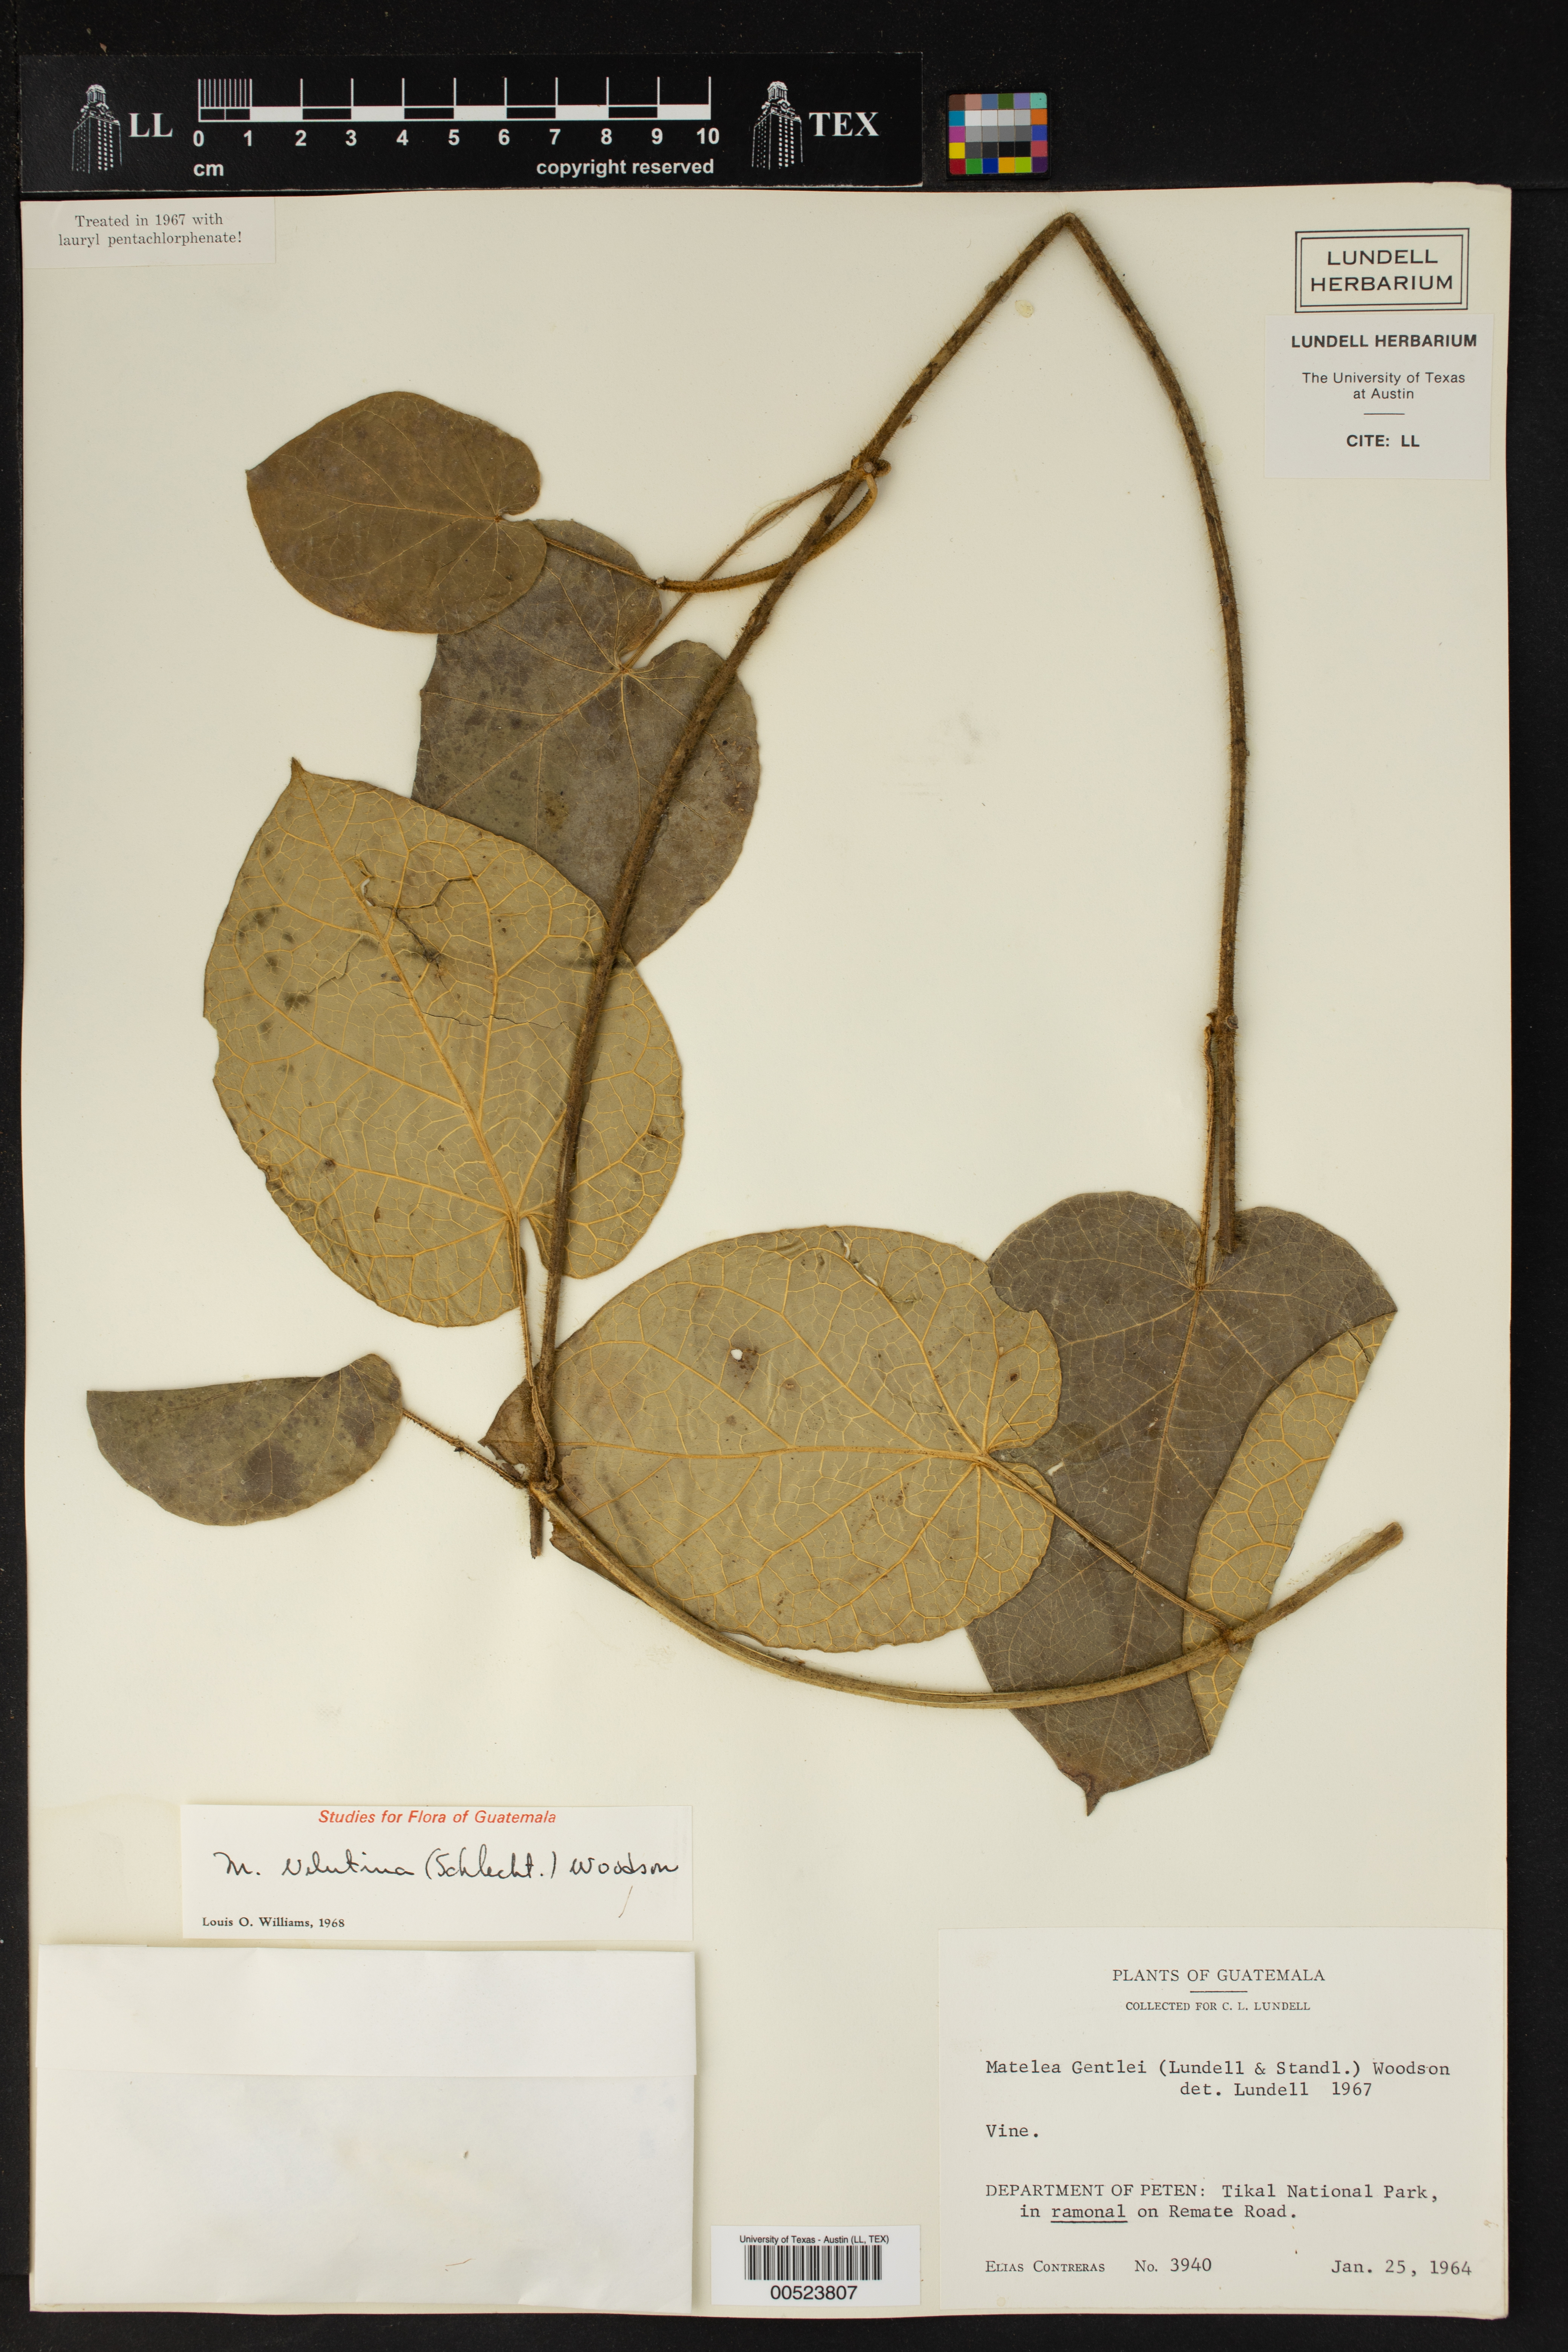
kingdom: Plantae
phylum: Tracheophyta
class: Magnoliopsida
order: Gentianales
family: Apocynaceae
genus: Matelea
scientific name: Matelea velutina
